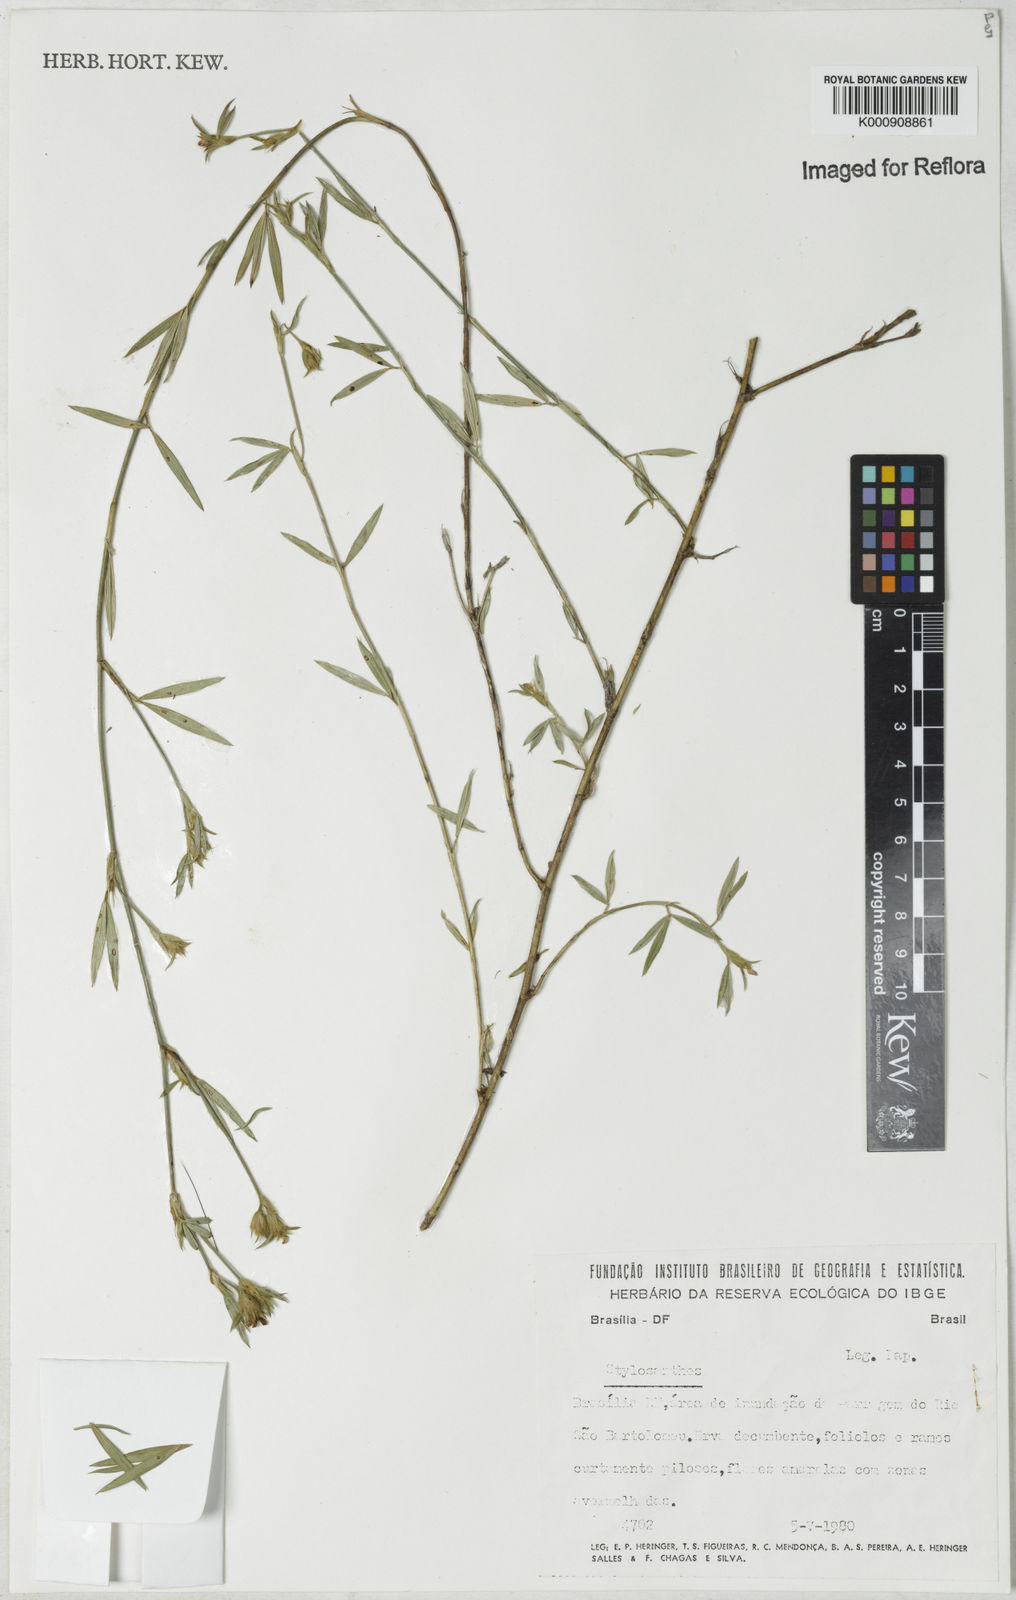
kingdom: Plantae
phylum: Tracheophyta
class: Magnoliopsida
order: Fabales
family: Fabaceae
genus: Stylosanthes
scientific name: Stylosanthes
